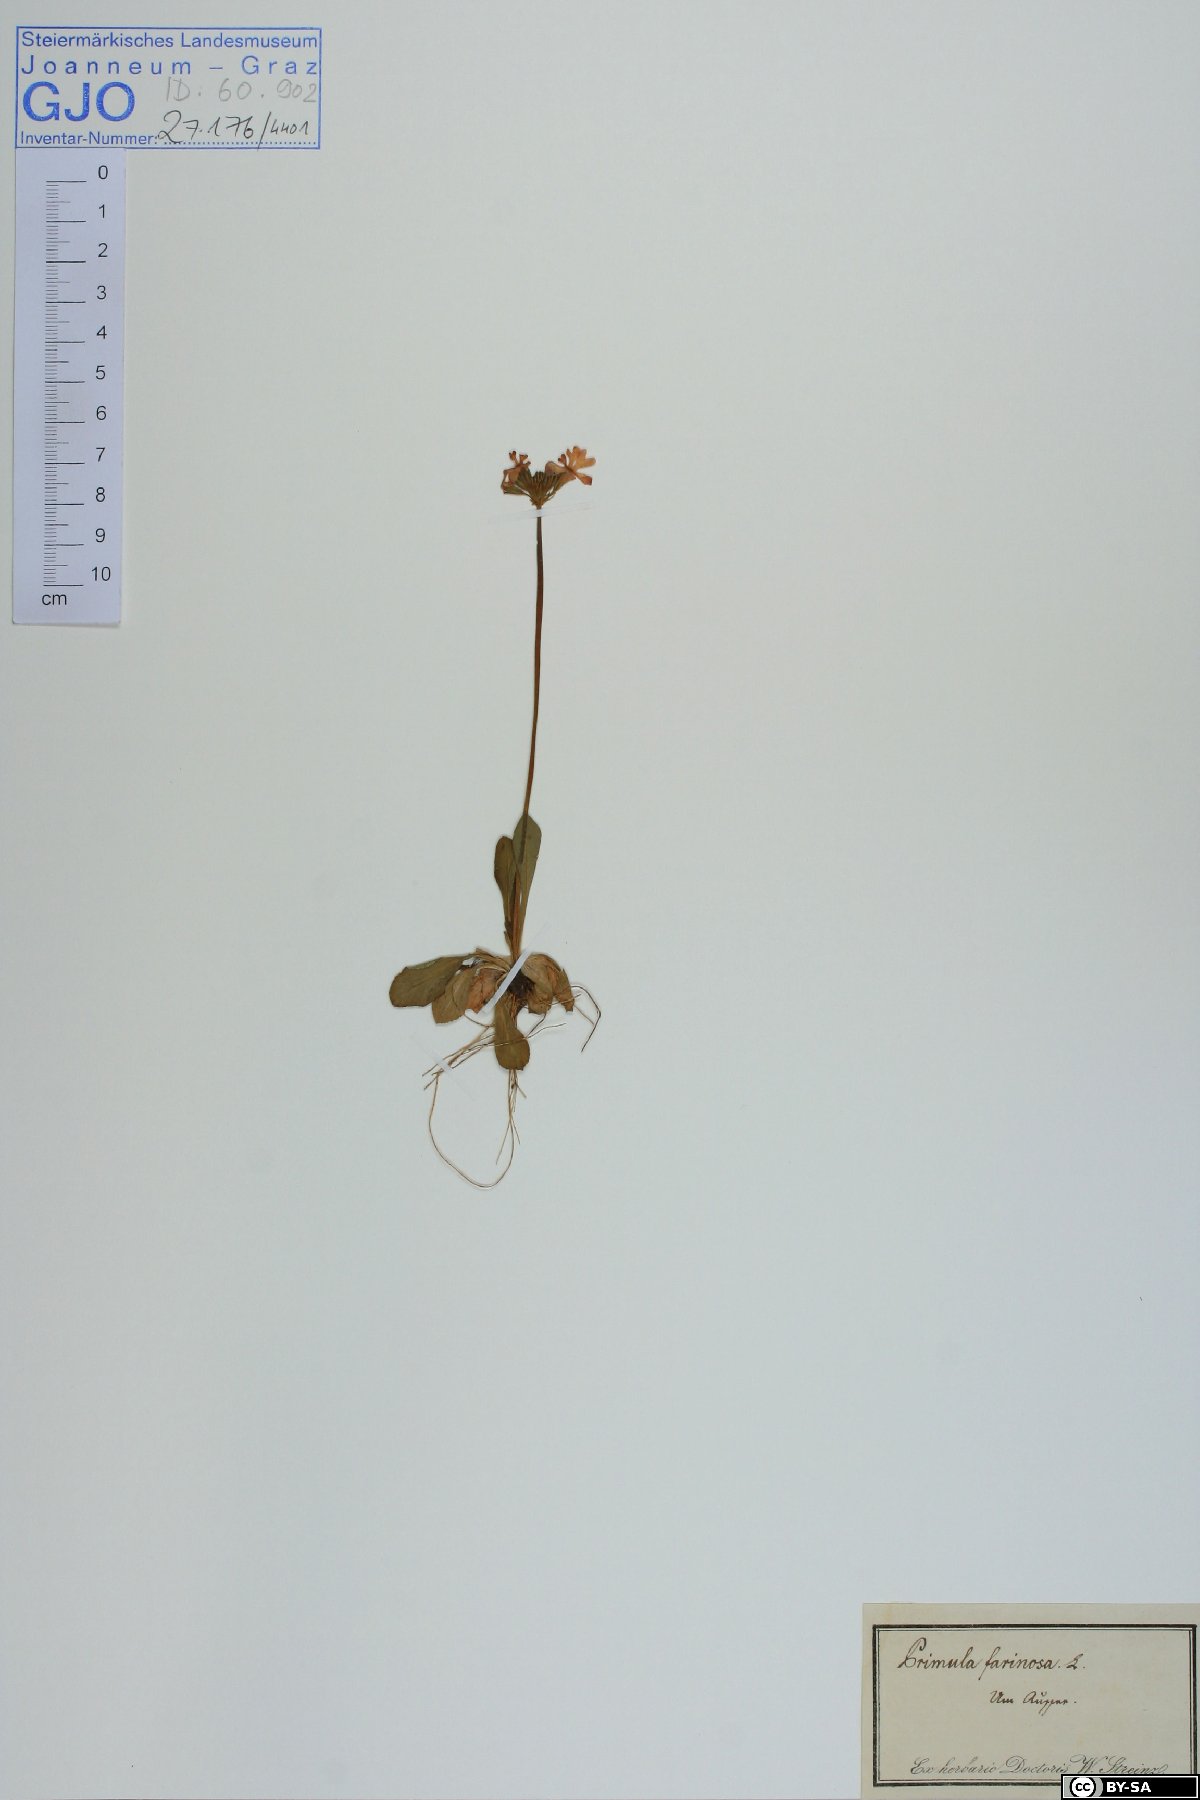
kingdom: Plantae
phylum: Tracheophyta
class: Magnoliopsida
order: Ericales
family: Primulaceae
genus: Primula
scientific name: Primula farinosa
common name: Bird's-eye primrose
